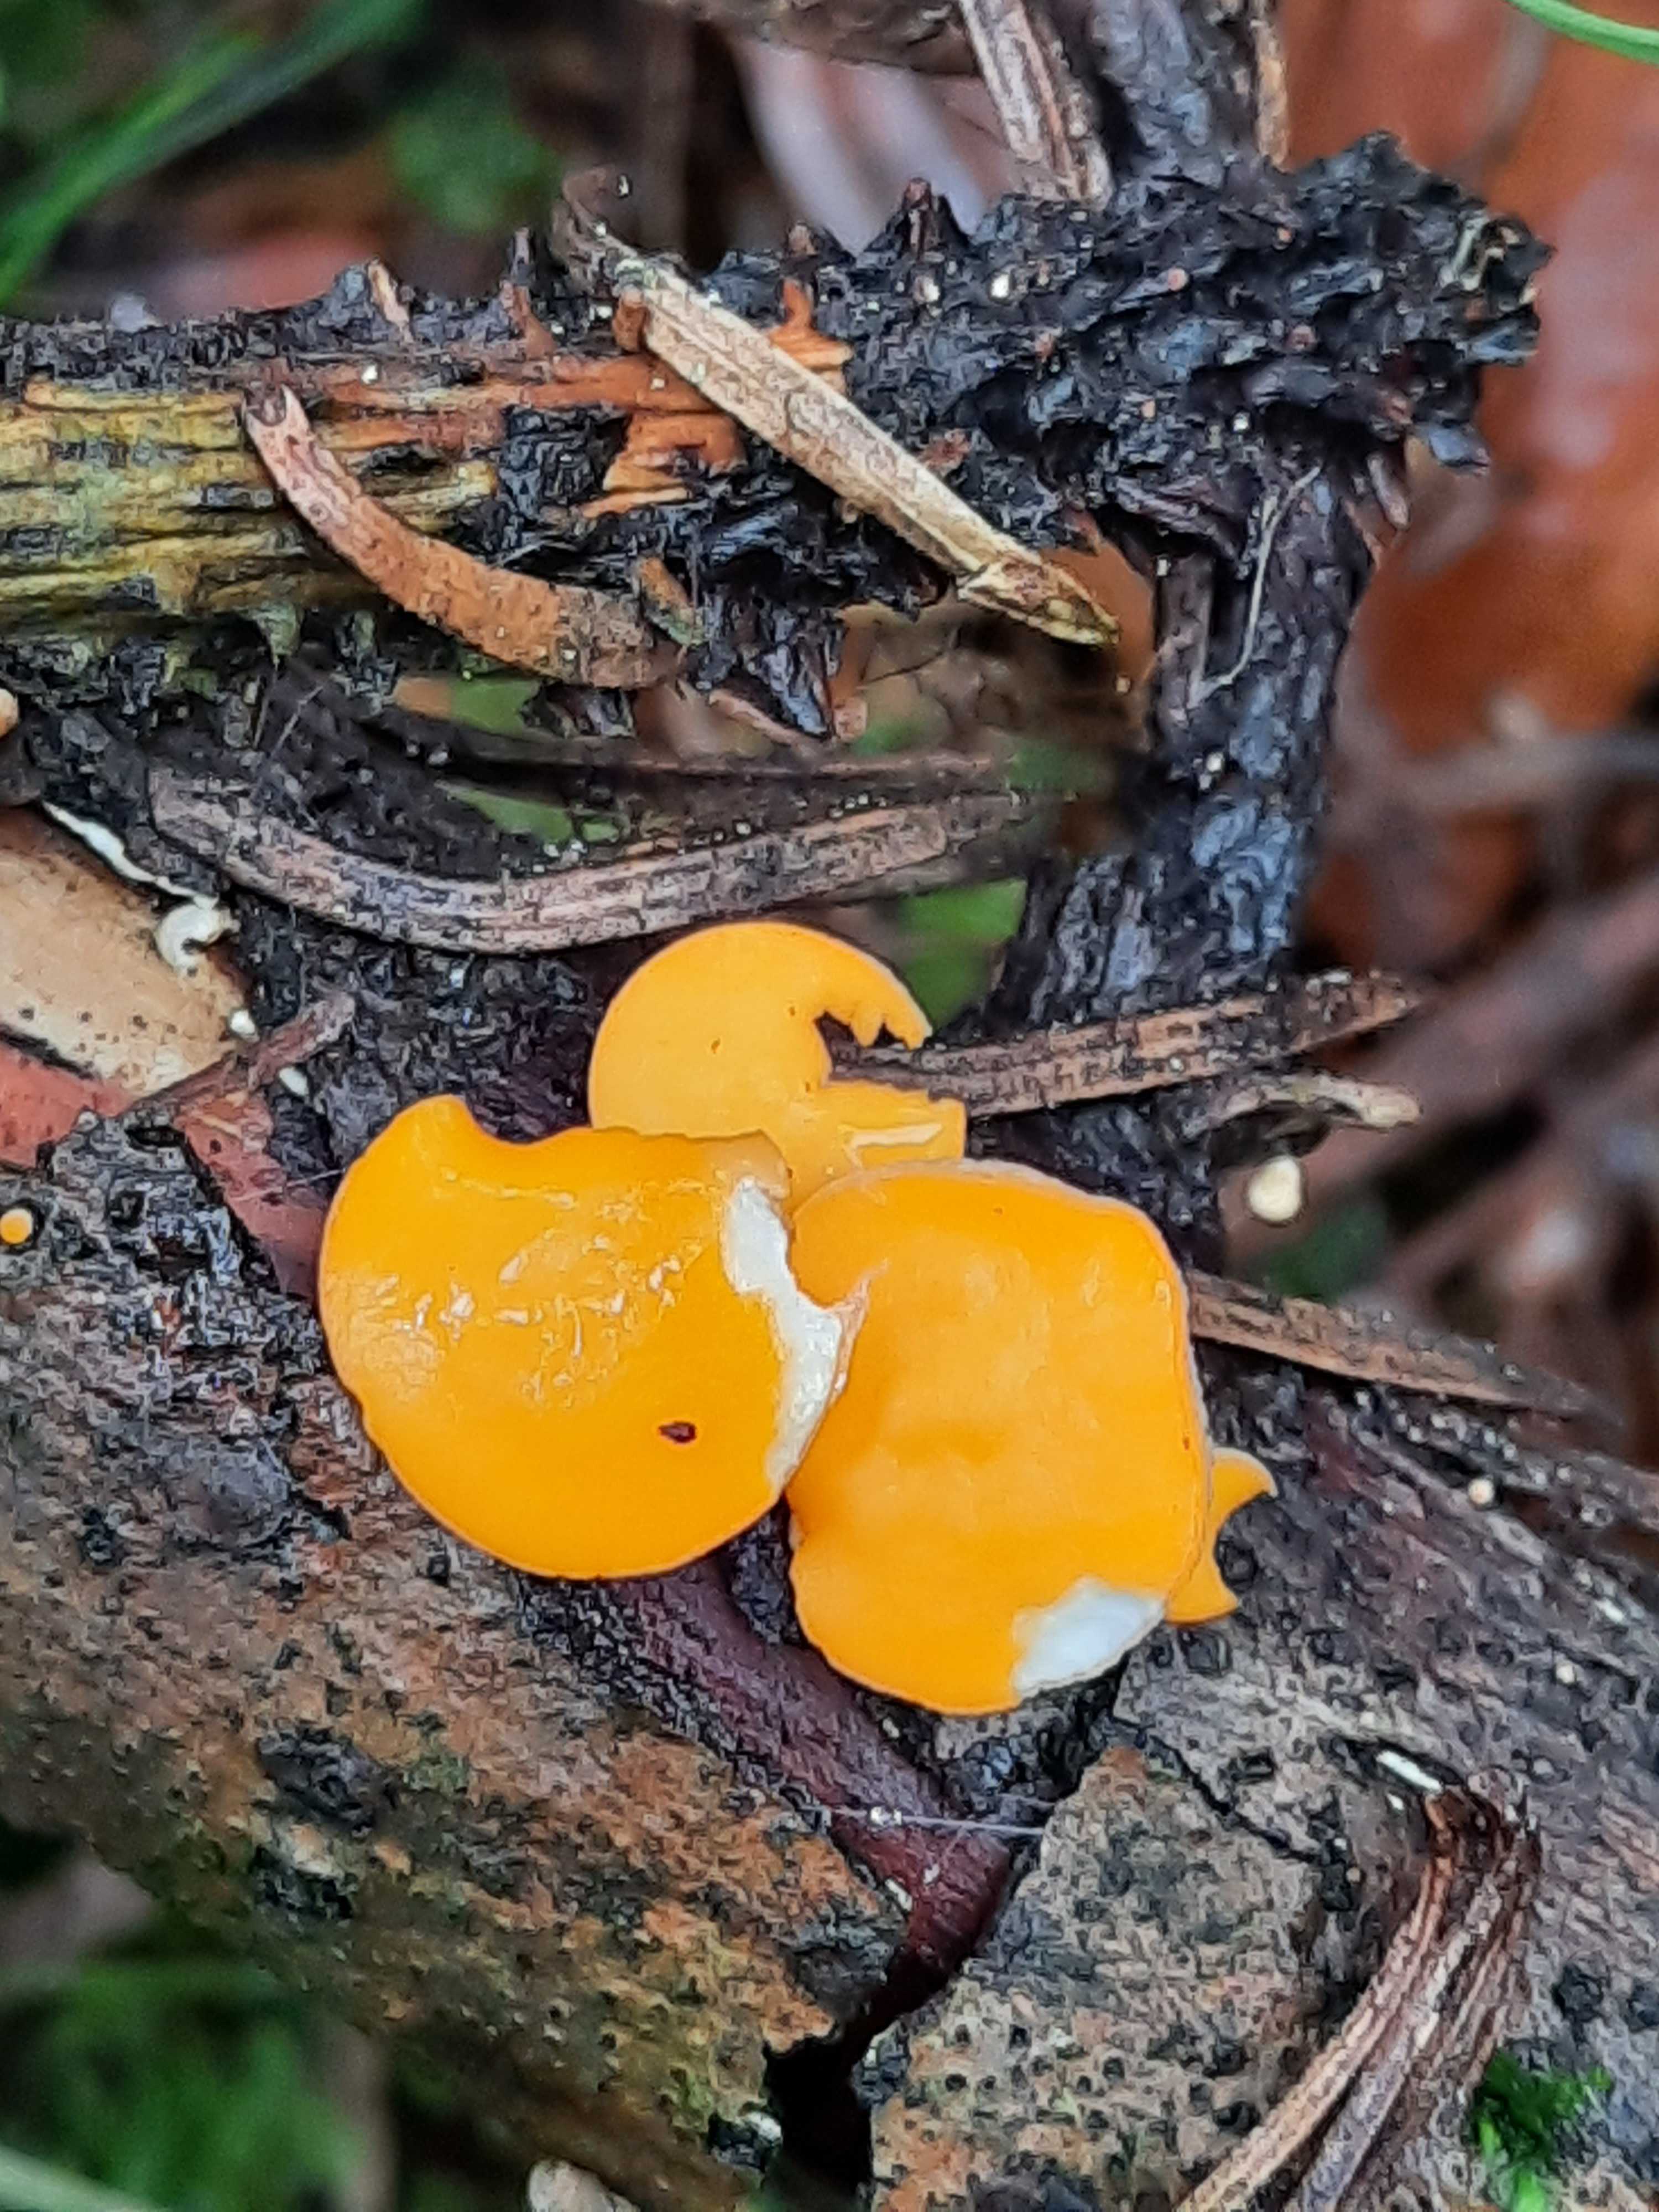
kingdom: Fungi
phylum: Ascomycota
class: Pezizomycetes
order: Pezizales
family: Sarcoscyphaceae
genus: Pithya
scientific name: Pithya vulgaris
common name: stor dukatbæger
